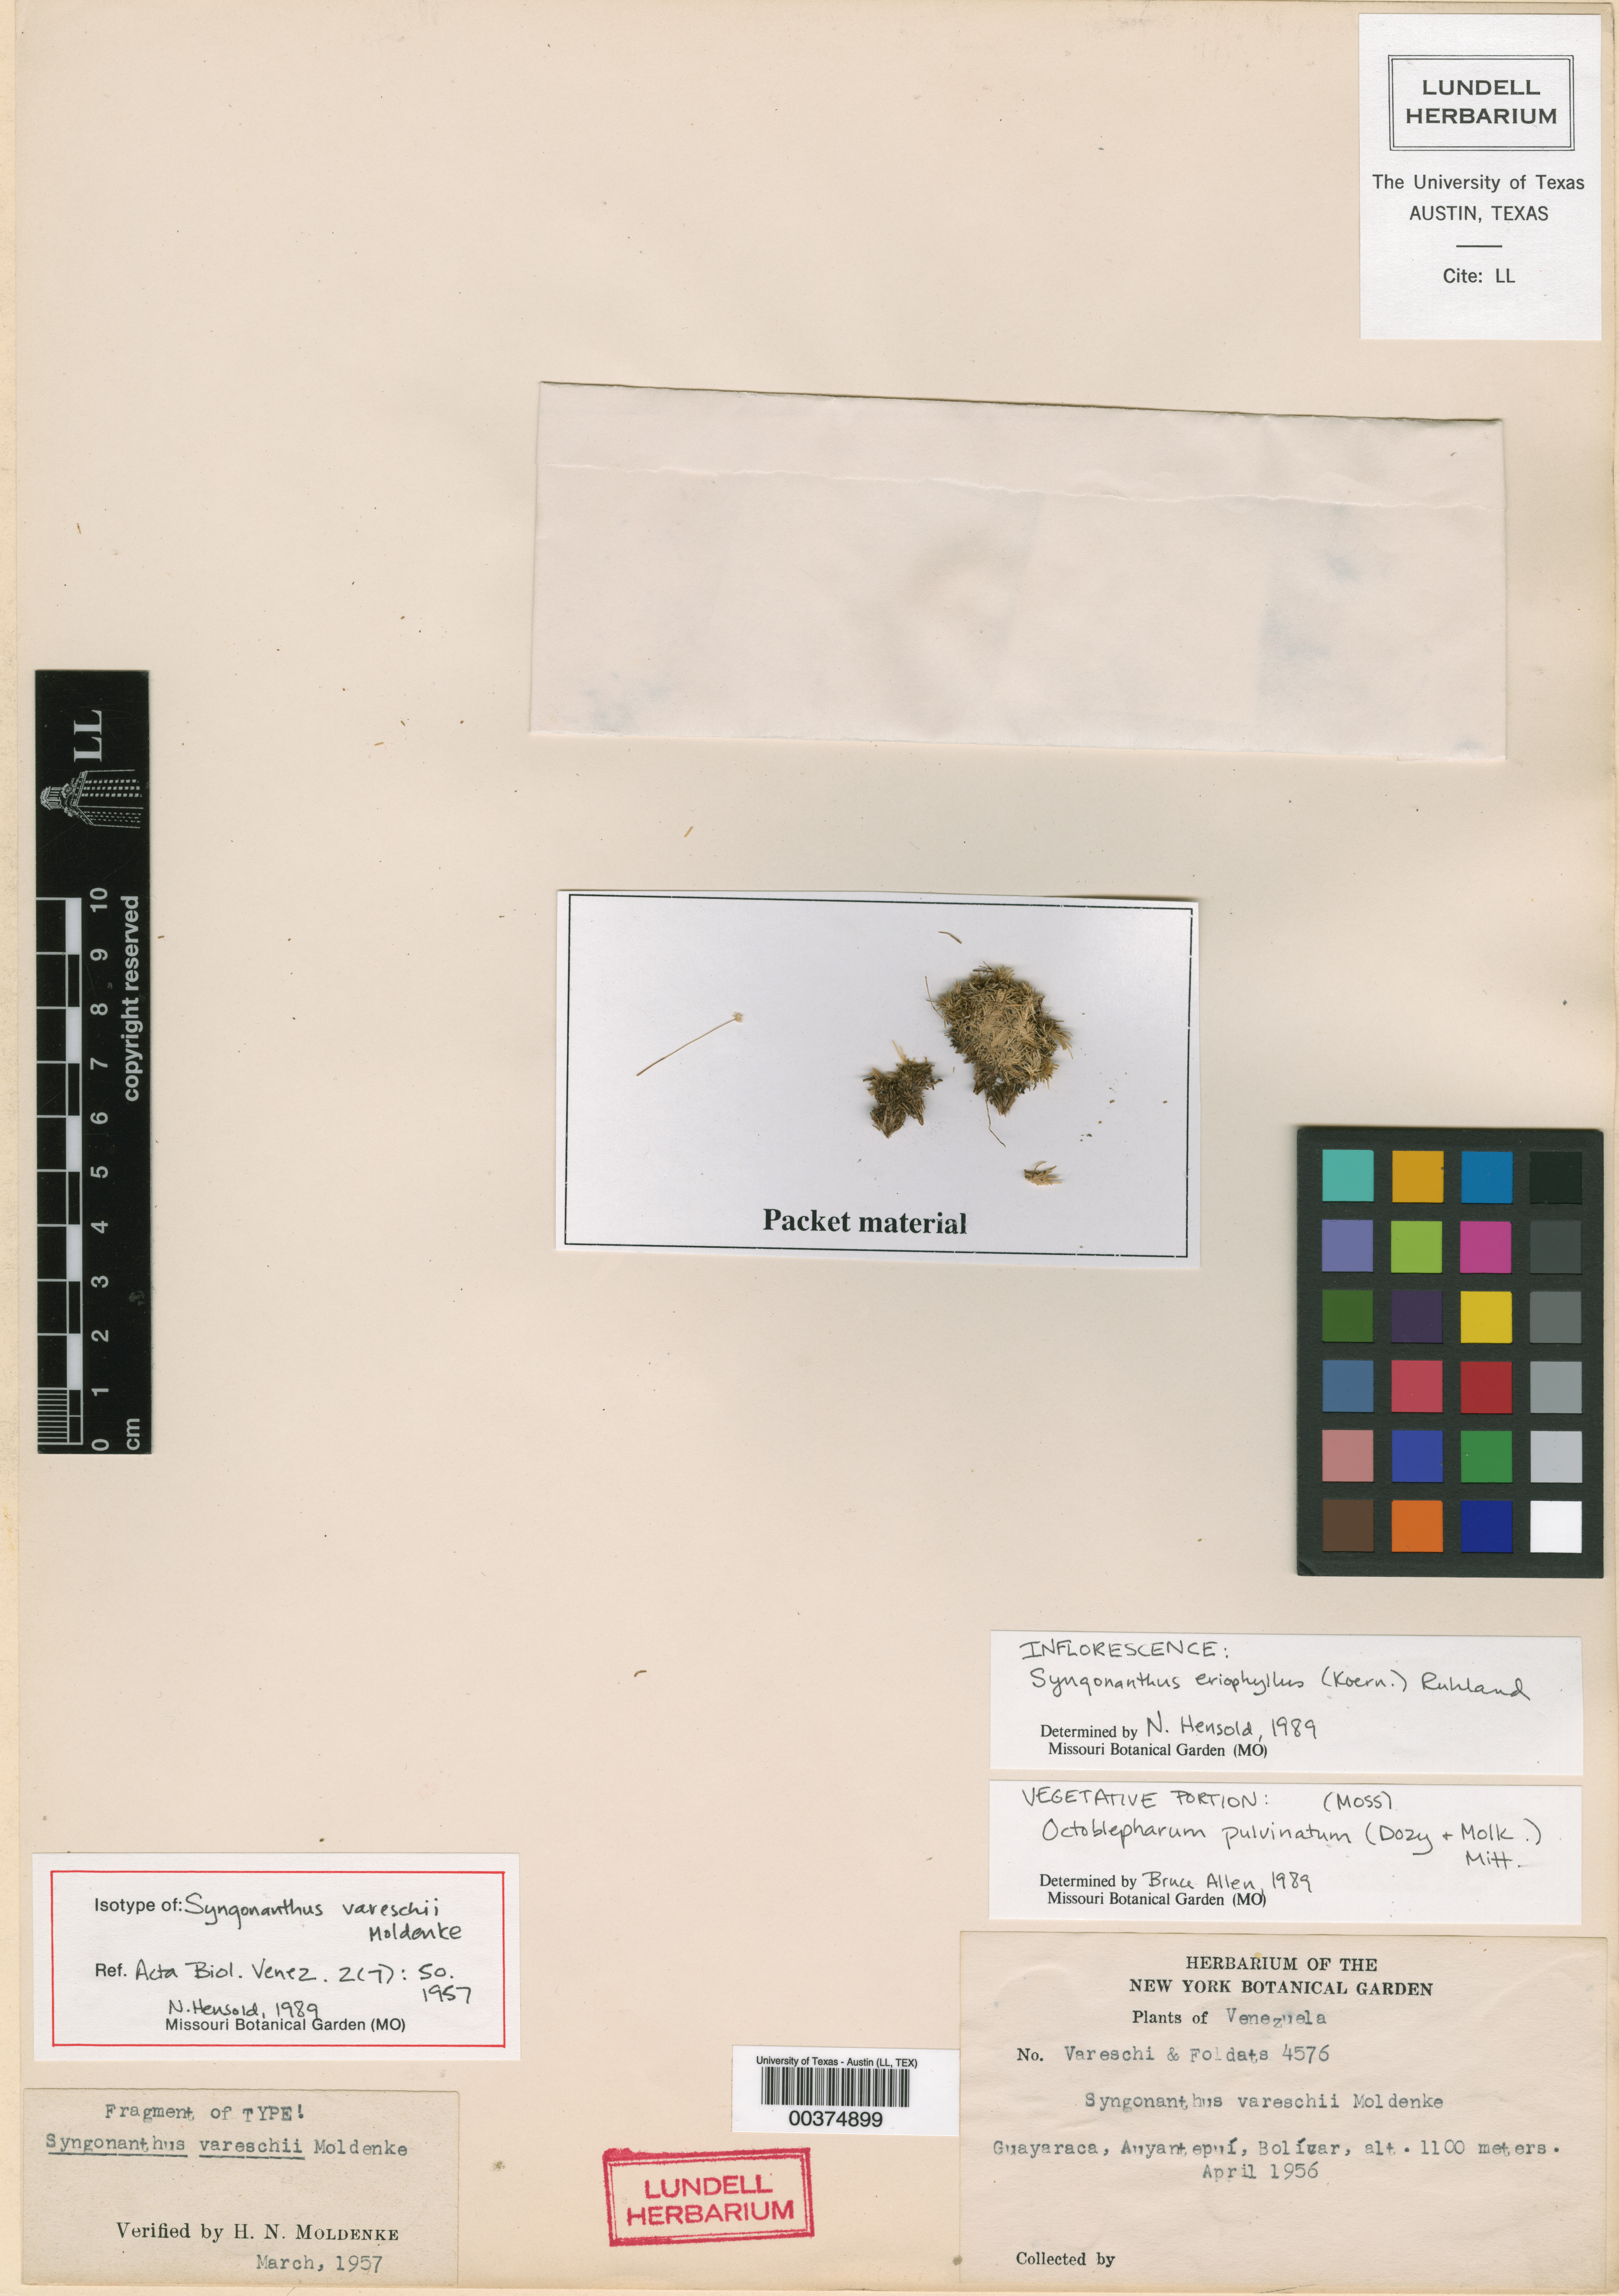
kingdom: Plantae
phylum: Tracheophyta
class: Liliopsida
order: Poales
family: Eriocaulaceae
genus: Syngonanthus
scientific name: Syngonanthus simplex
